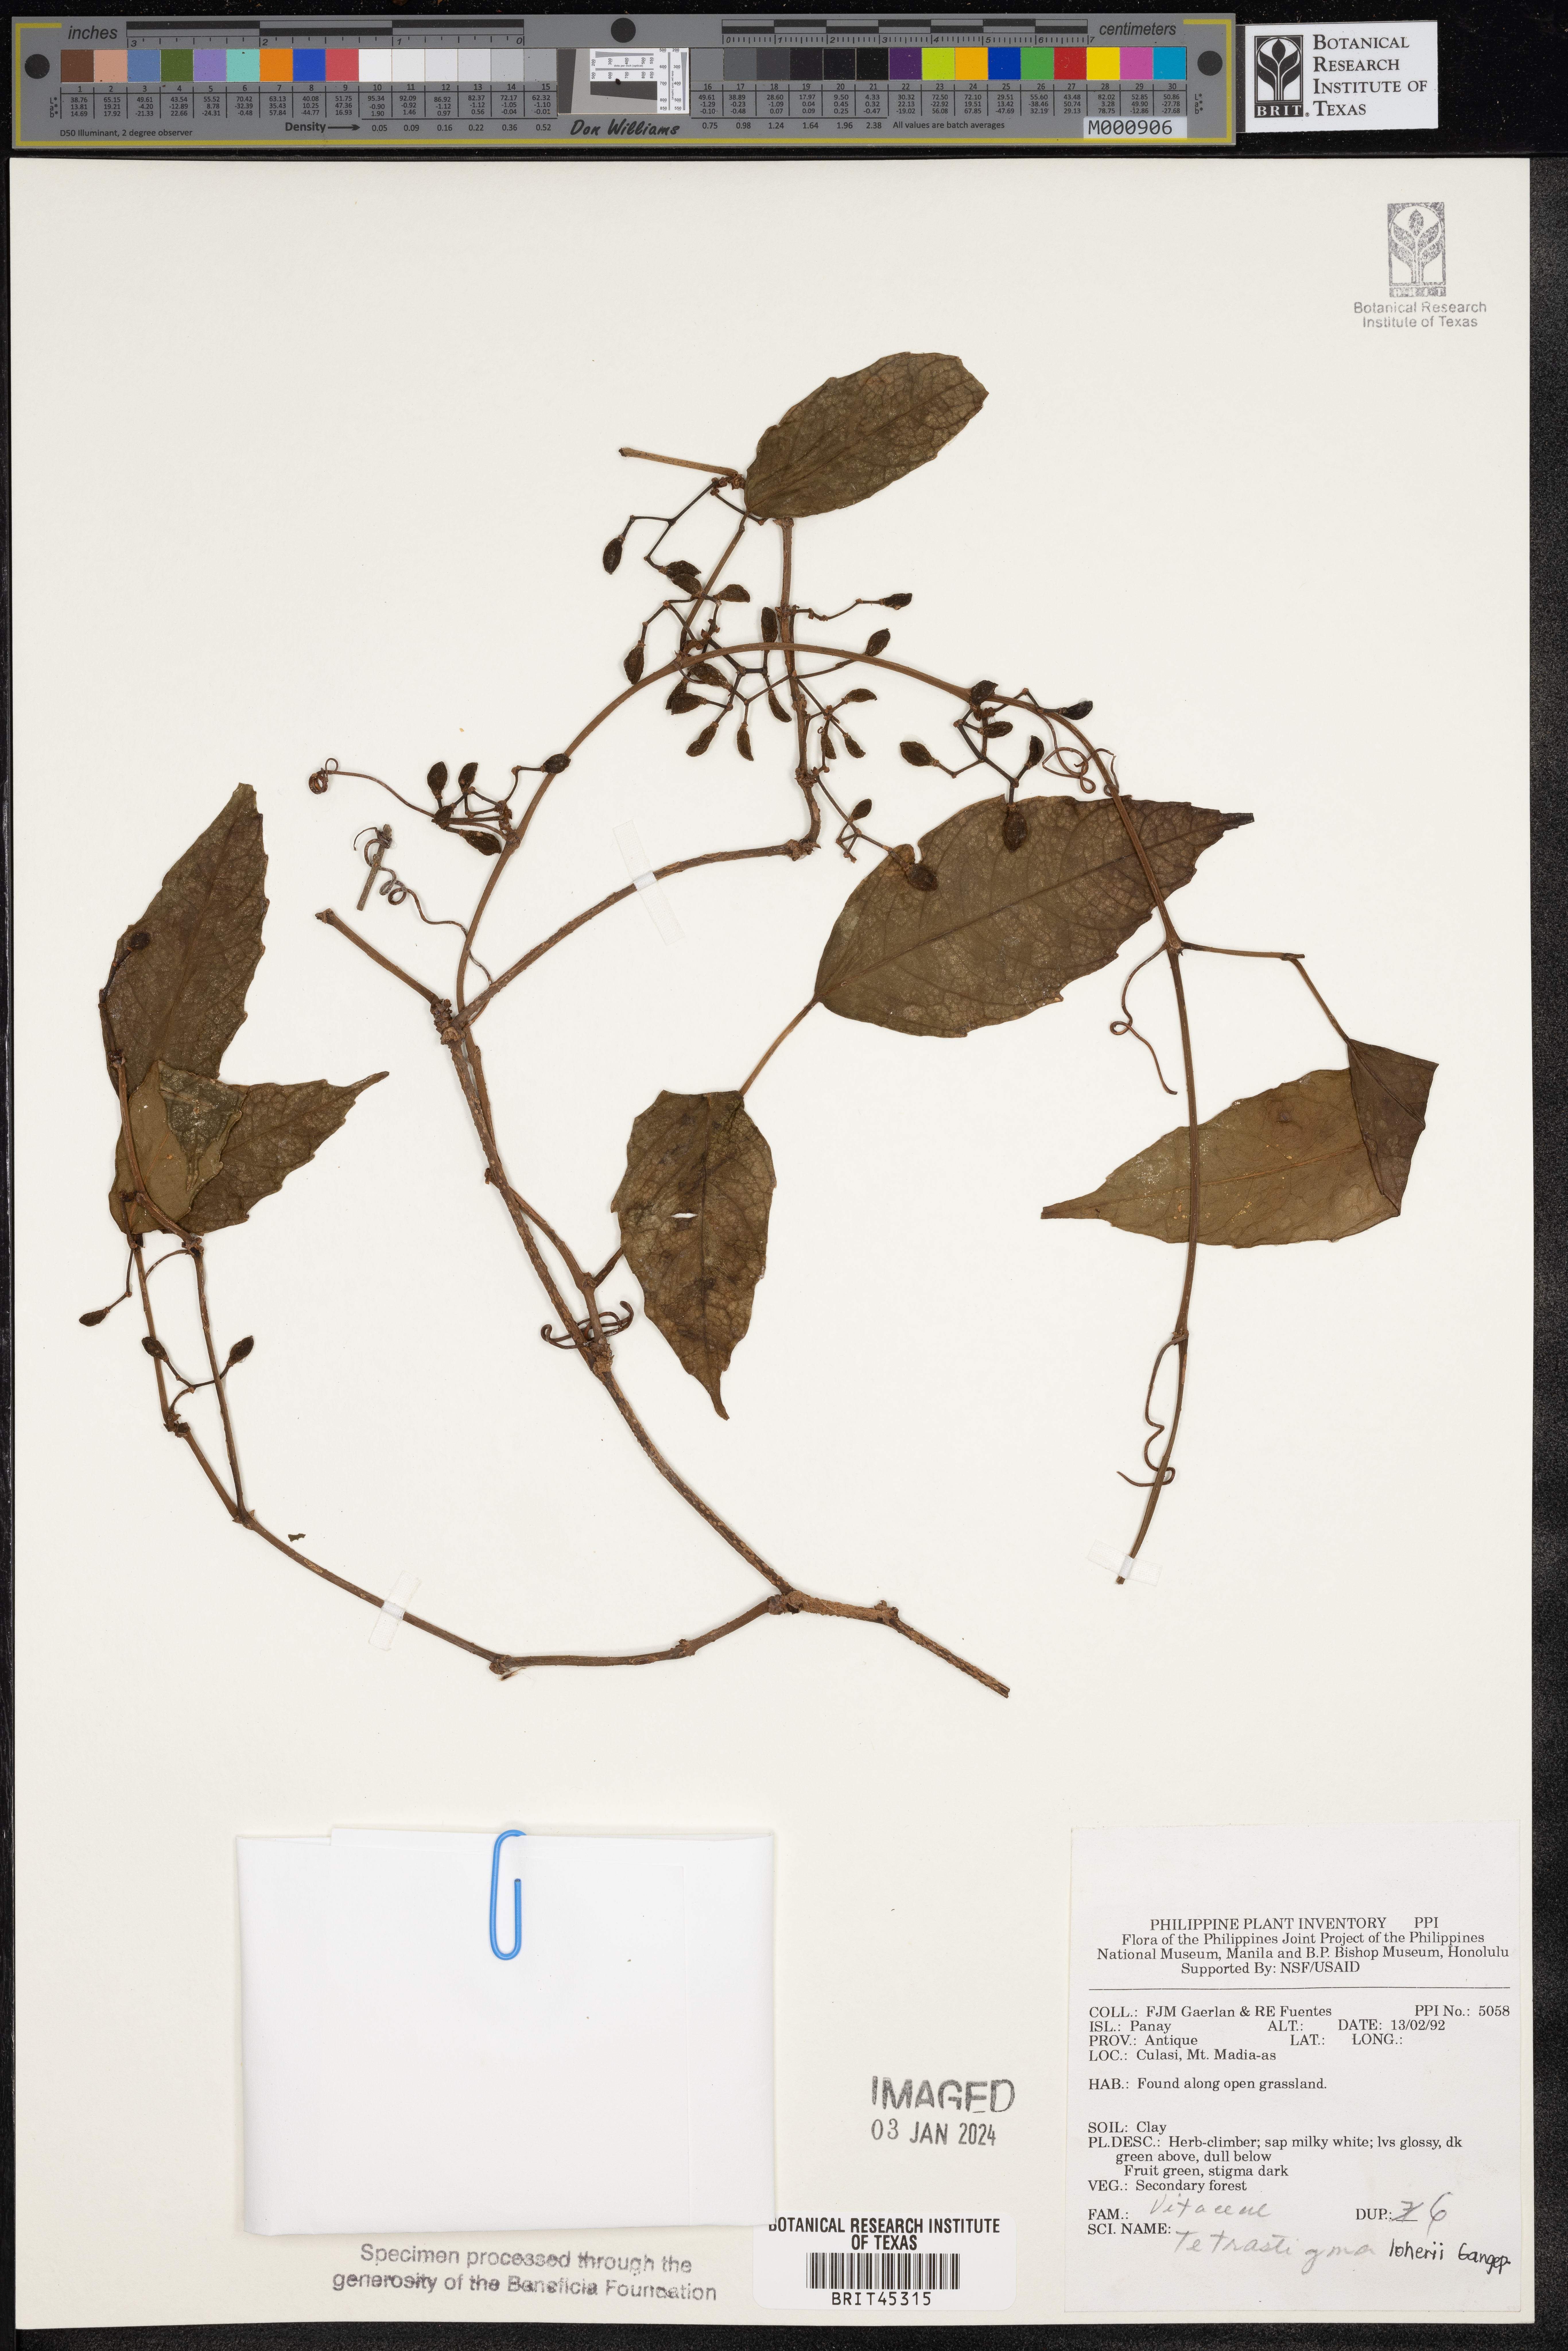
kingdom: Plantae
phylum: Tracheophyta
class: Magnoliopsida
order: Vitales
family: Vitaceae
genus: Tetrastigma
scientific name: Tetrastigma loheri
